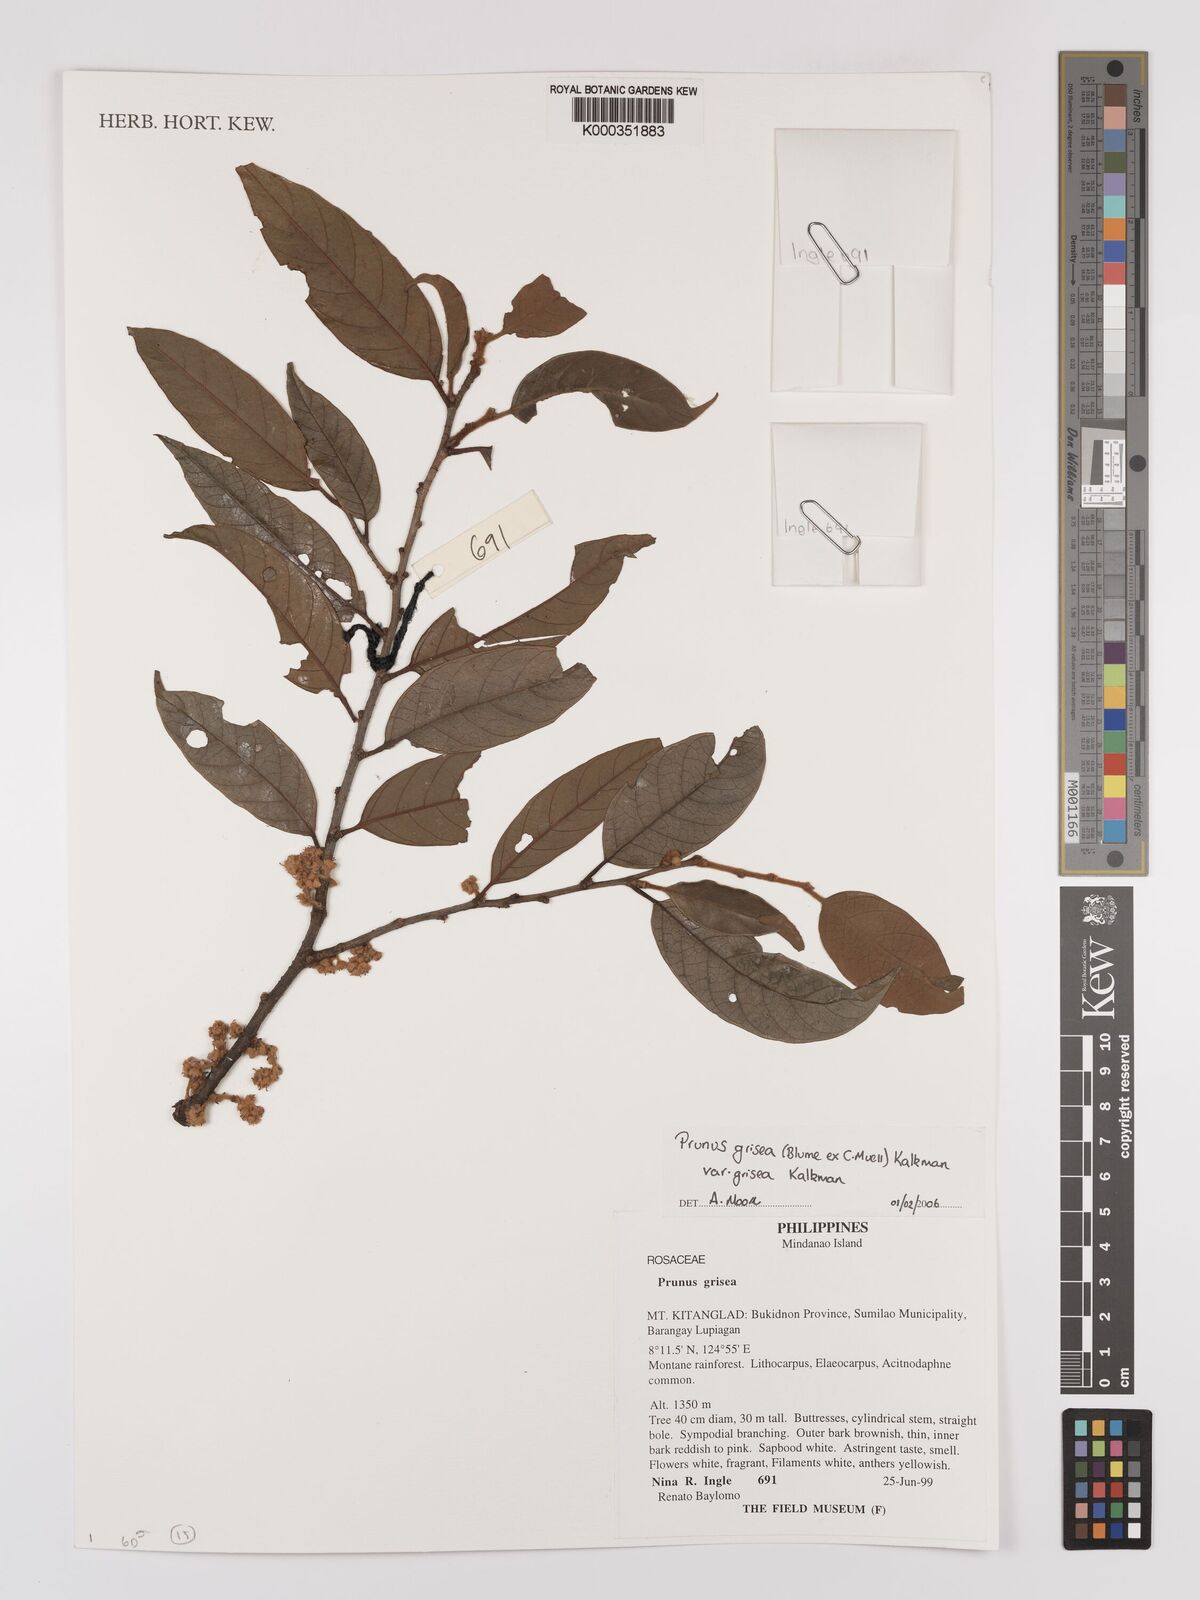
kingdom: Plantae
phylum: Tracheophyta
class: Magnoliopsida
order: Rosales
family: Rosaceae
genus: Prunus
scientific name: Prunus grisea
